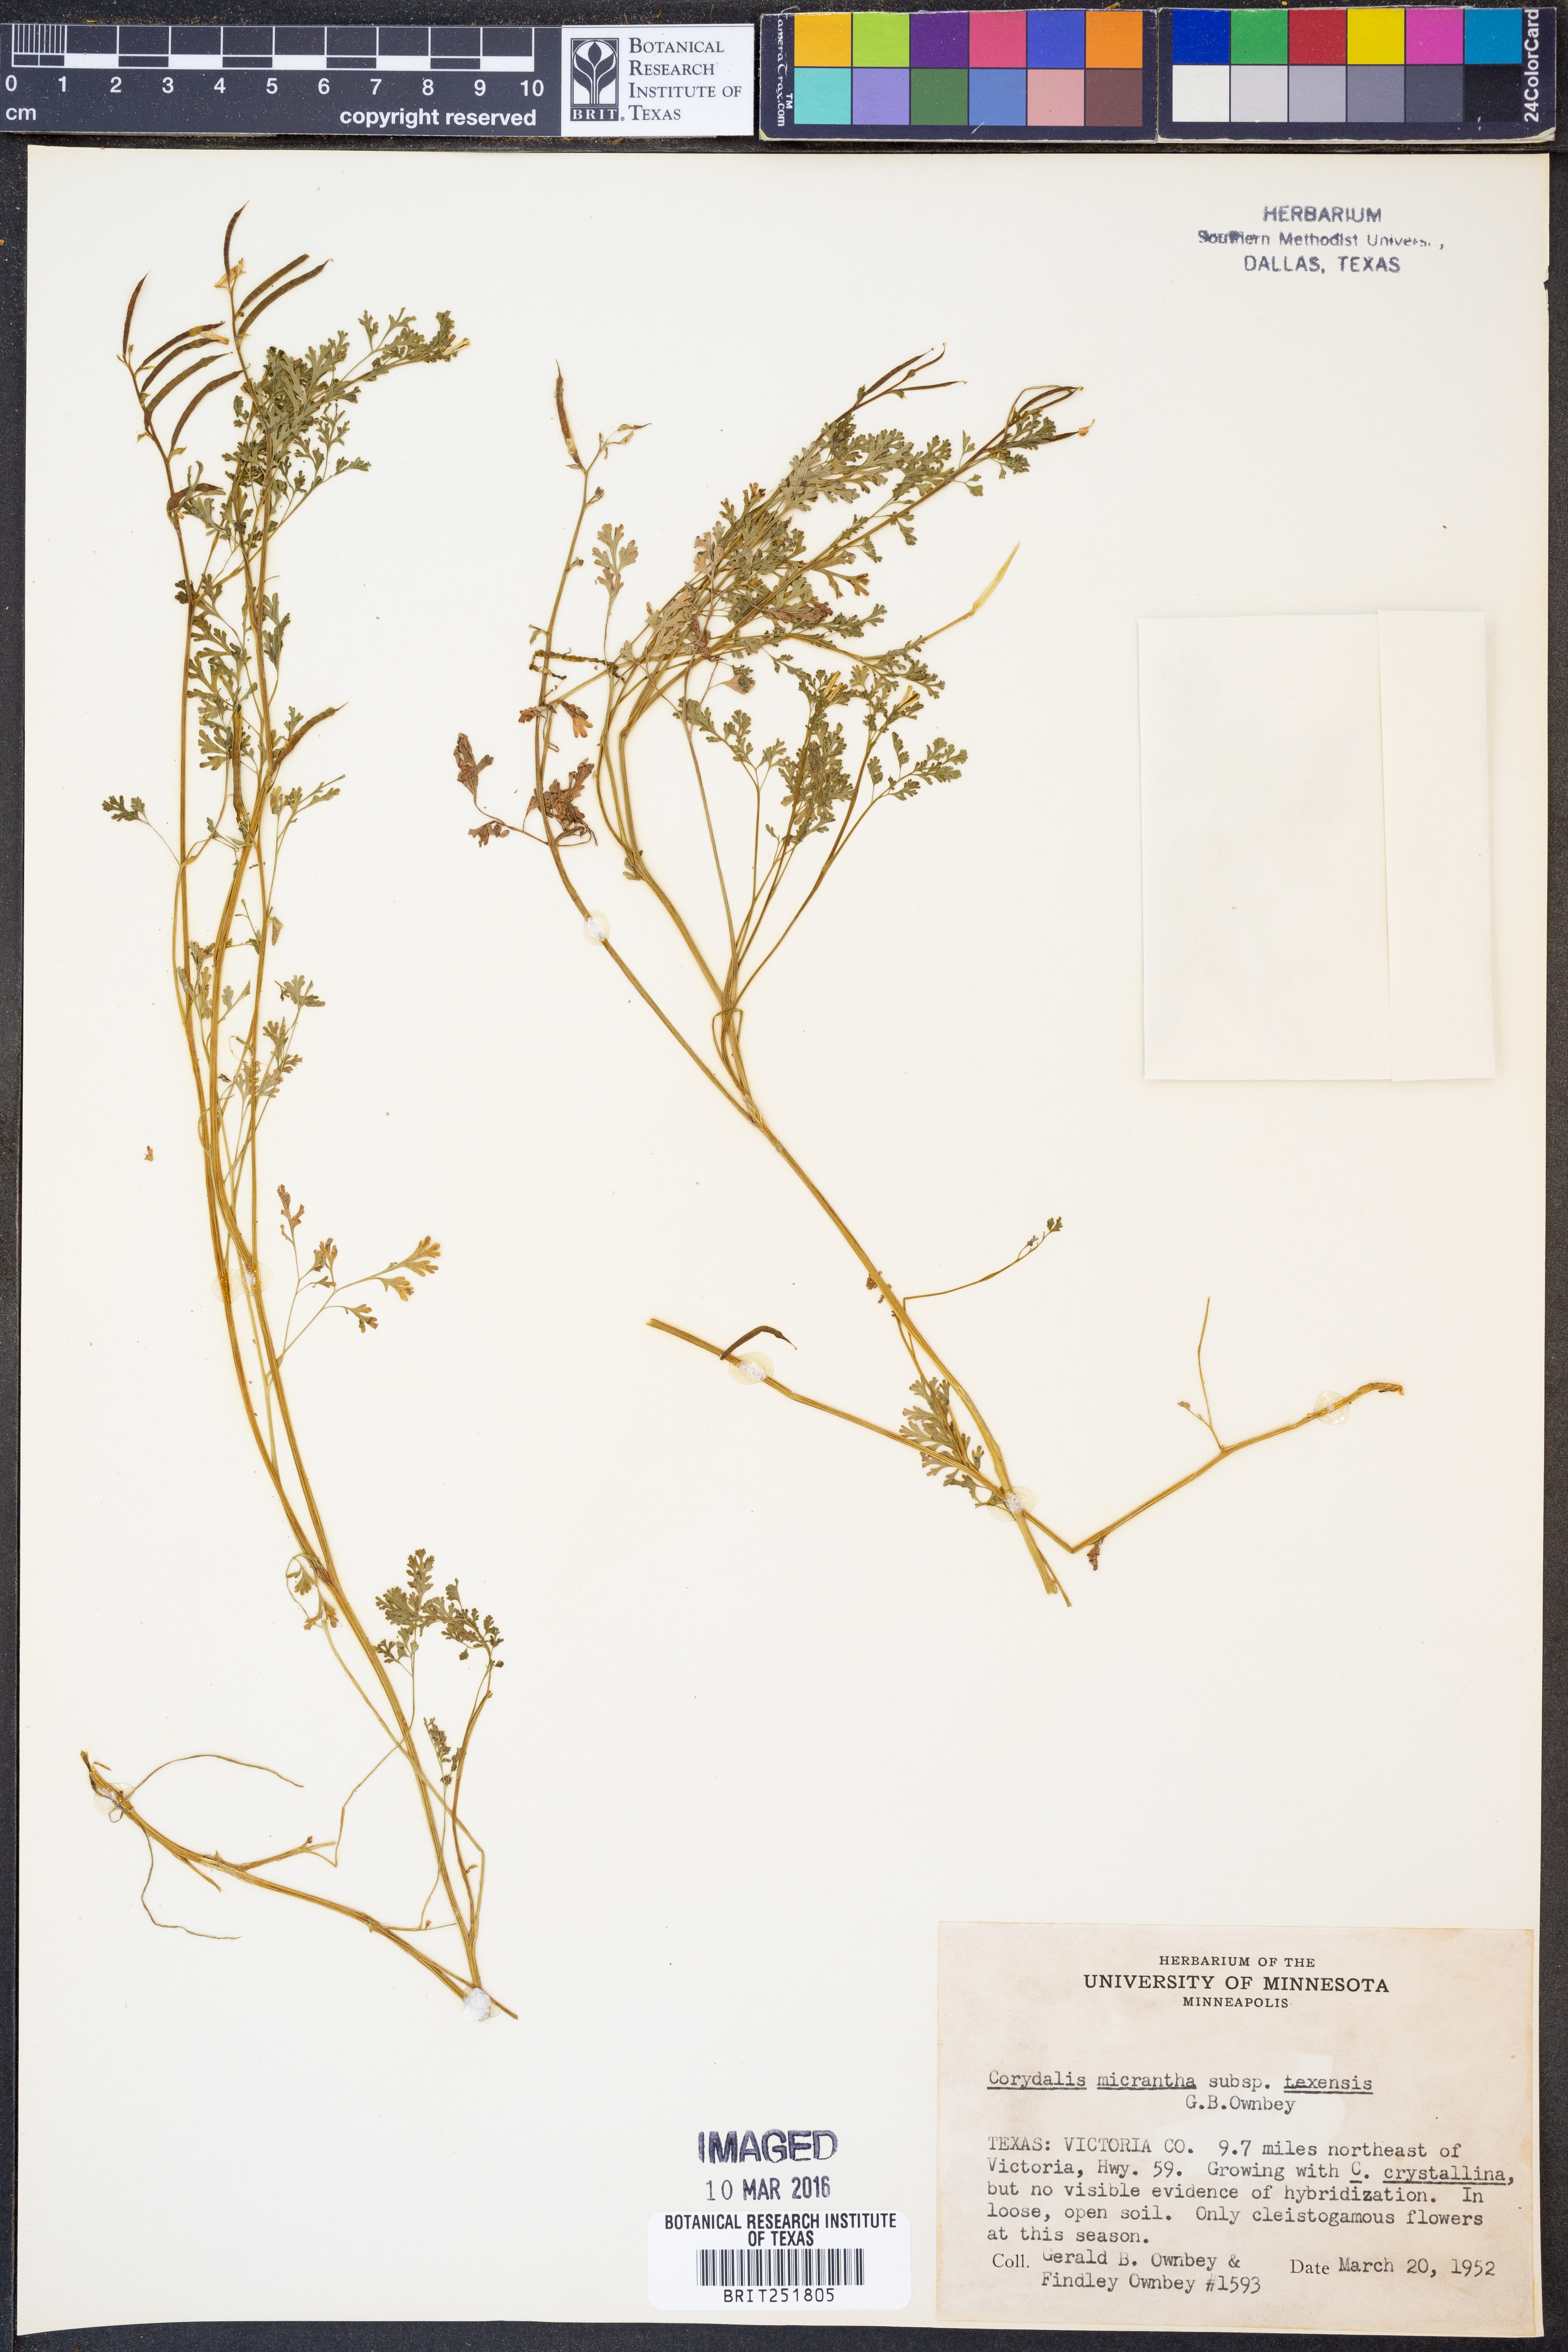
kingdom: Plantae
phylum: Tracheophyta
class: Magnoliopsida
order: Ranunculales
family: Papaveraceae
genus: Corydalis
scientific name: Corydalis micrantha
